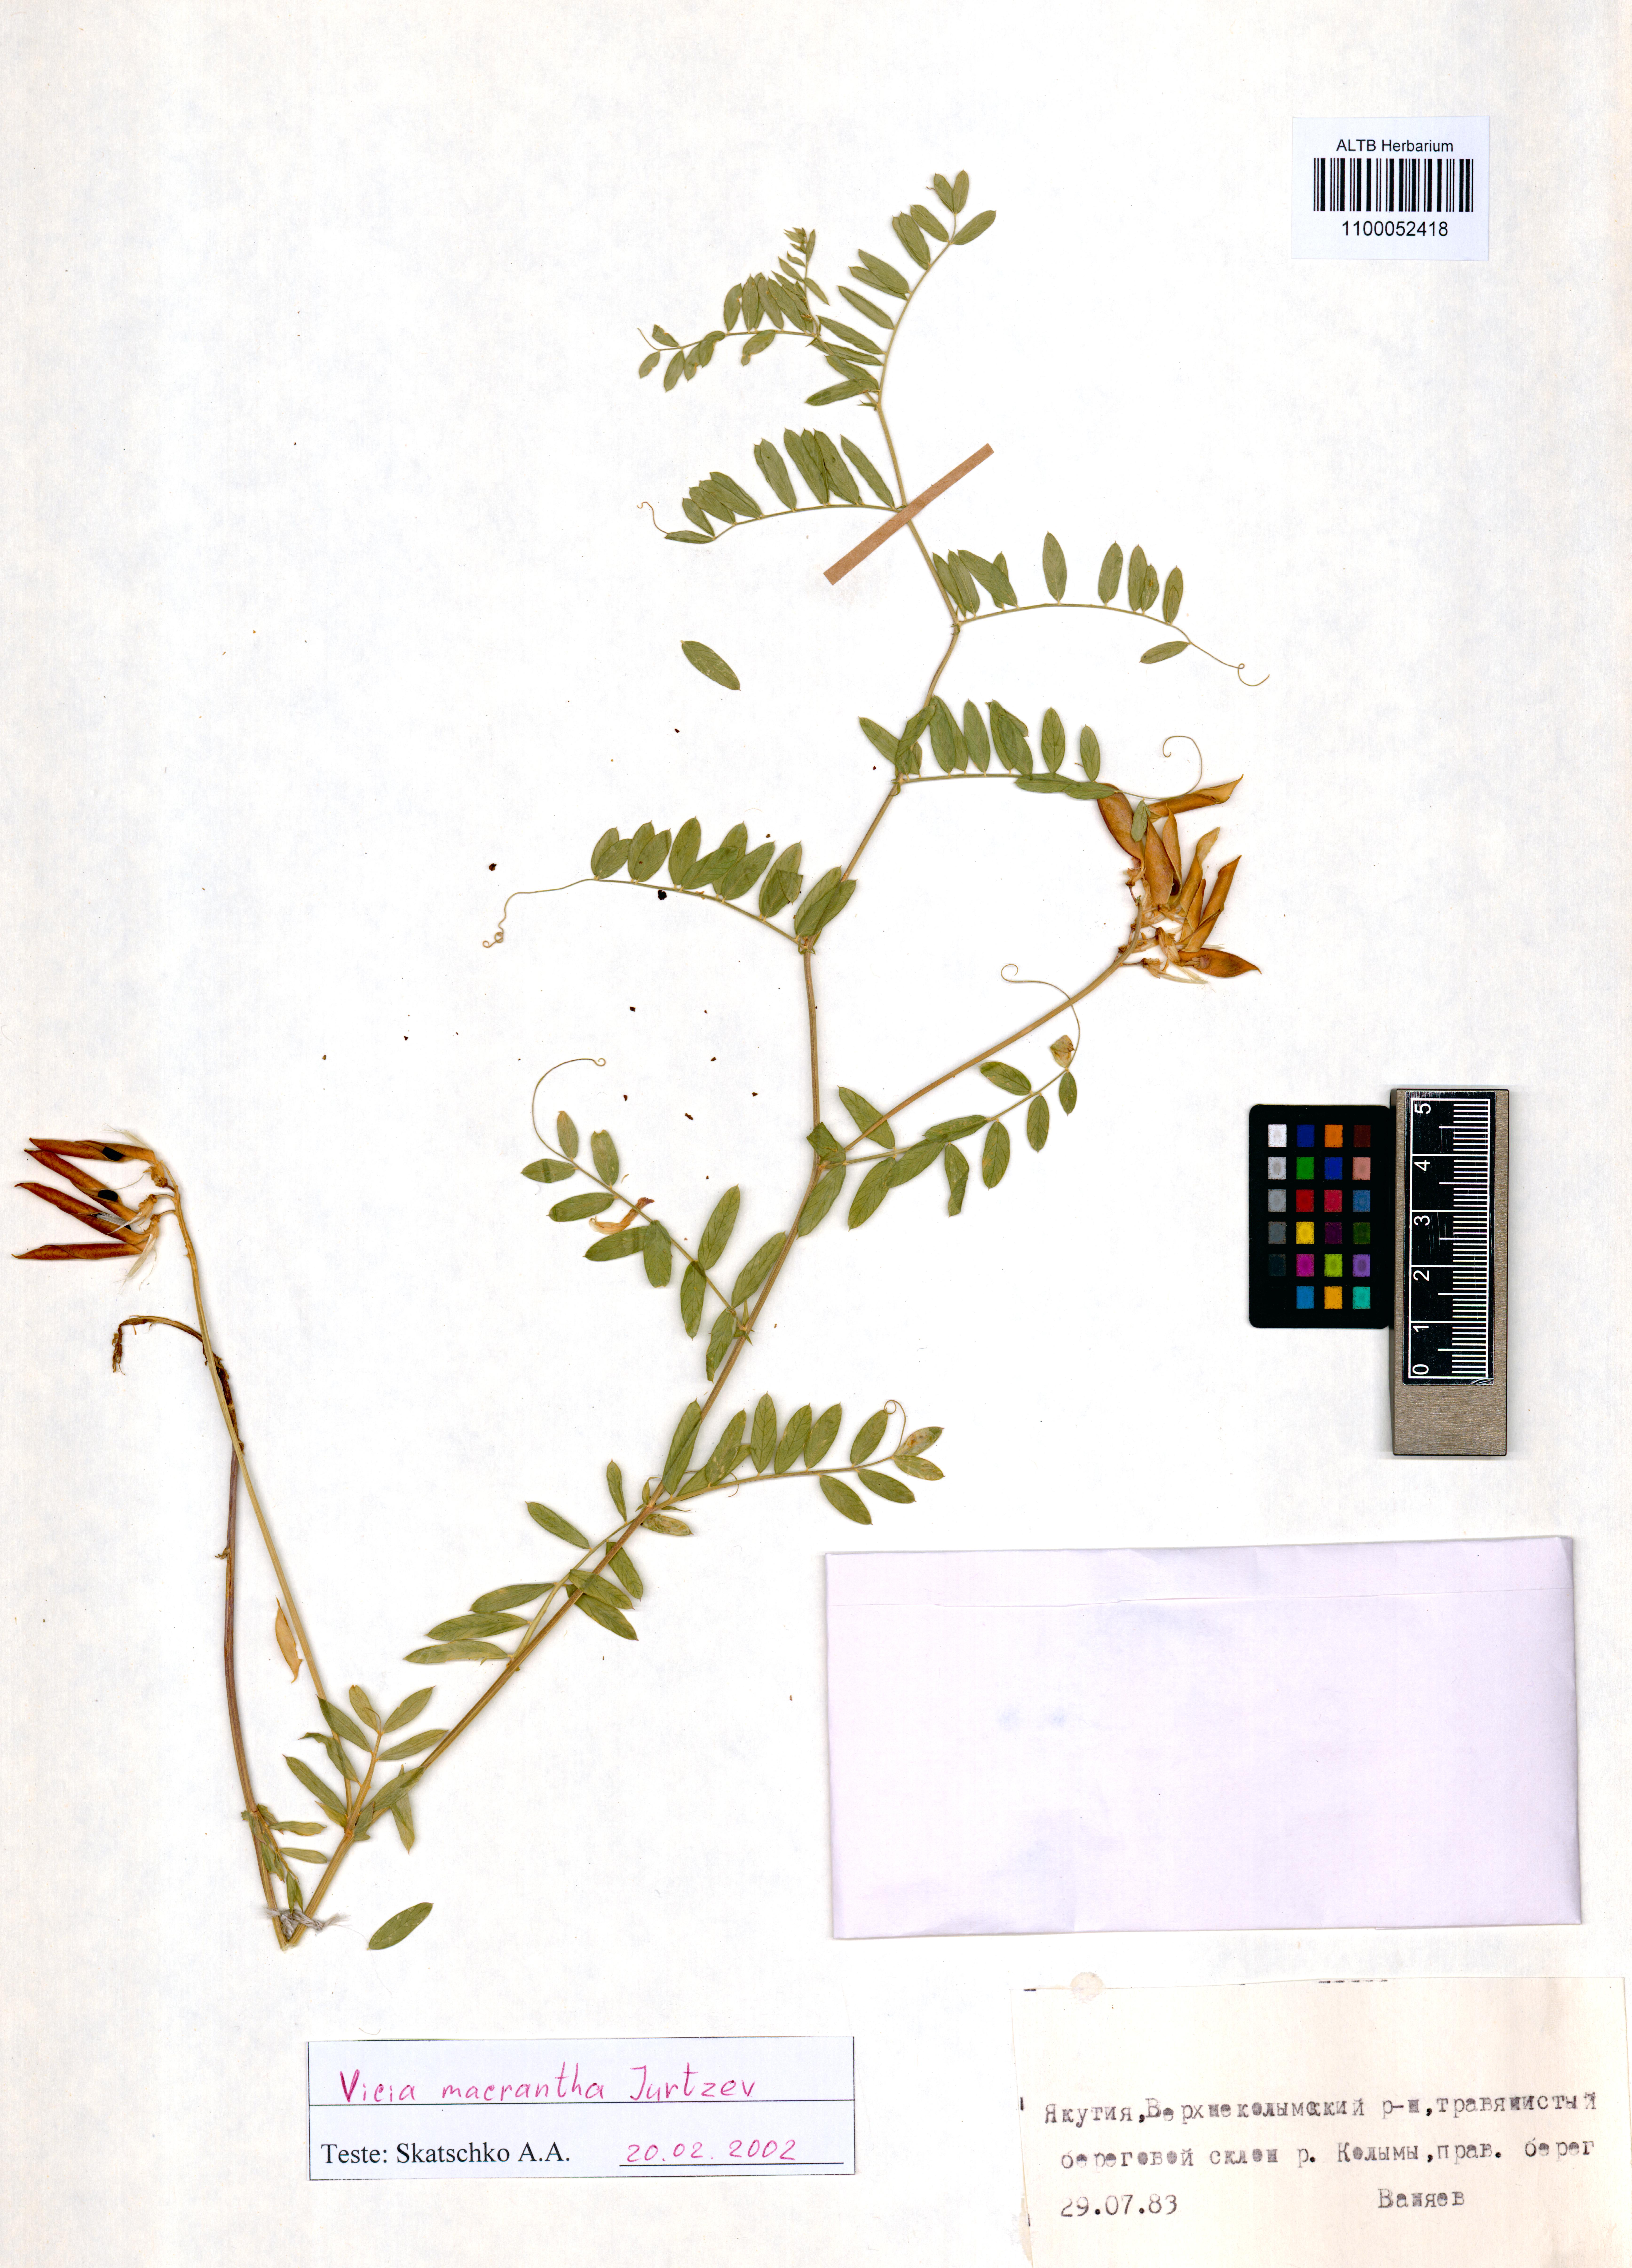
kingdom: Plantae
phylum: Tracheophyta
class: Magnoliopsida
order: Fabales
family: Fabaceae
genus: Vicia
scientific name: Vicia macrantha
